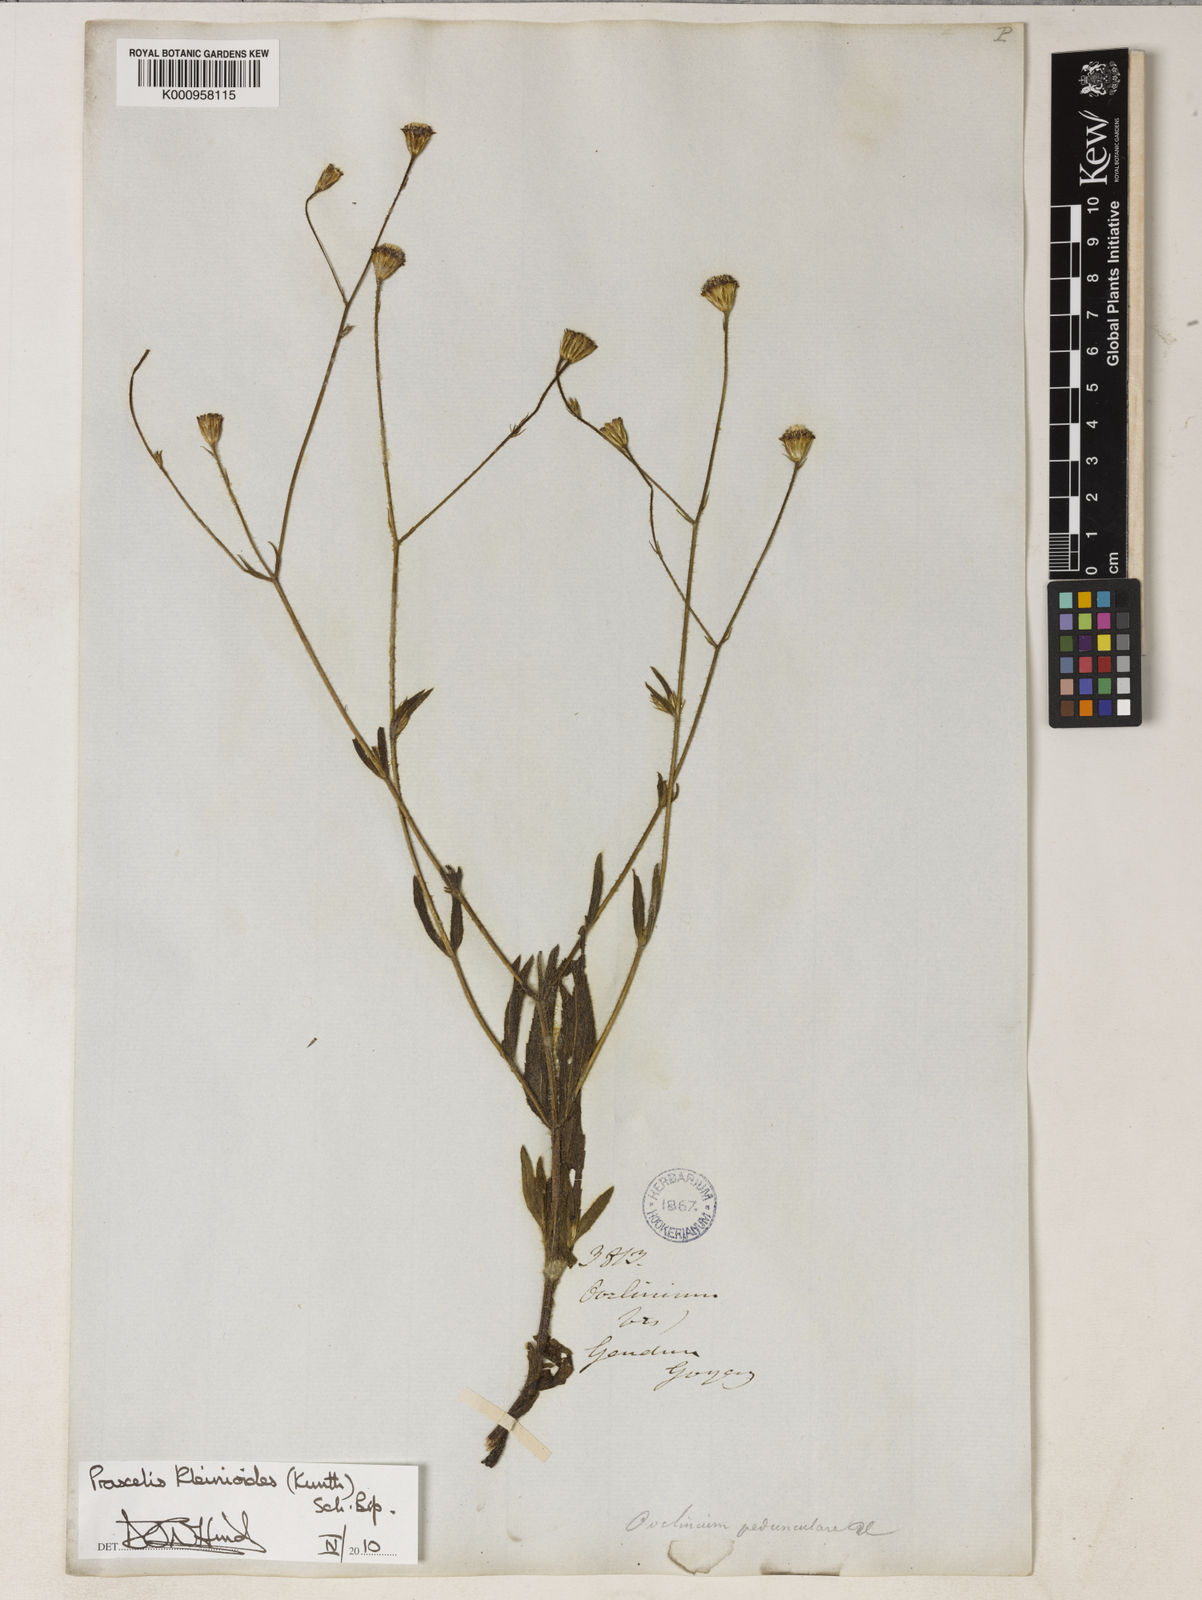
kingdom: Plantae
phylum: Tracheophyta
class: Magnoliopsida
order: Asterales
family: Asteraceae
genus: Praxelis
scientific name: Praxelis kleinioides
